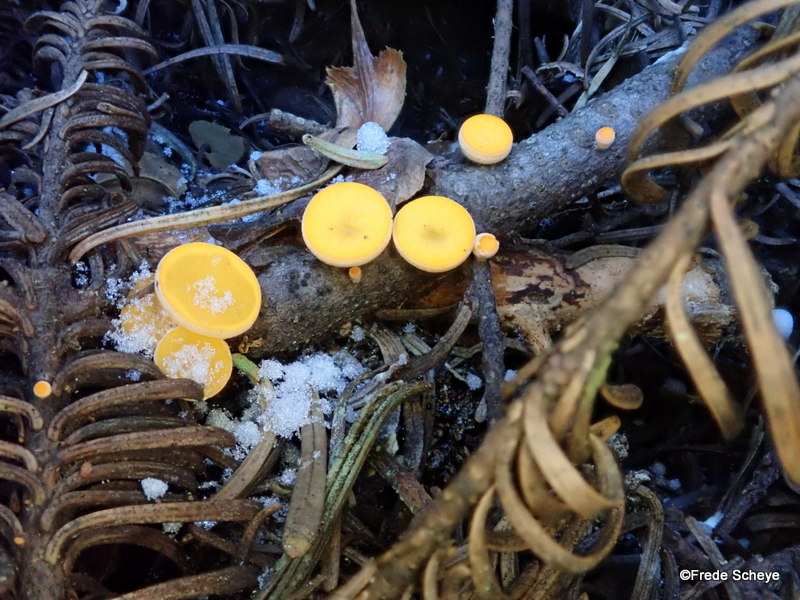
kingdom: Fungi
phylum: Ascomycota
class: Pezizomycetes
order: Pezizales
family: Sarcoscyphaceae
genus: Pithya
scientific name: Pithya vulgaris
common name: stor dukatbæger
